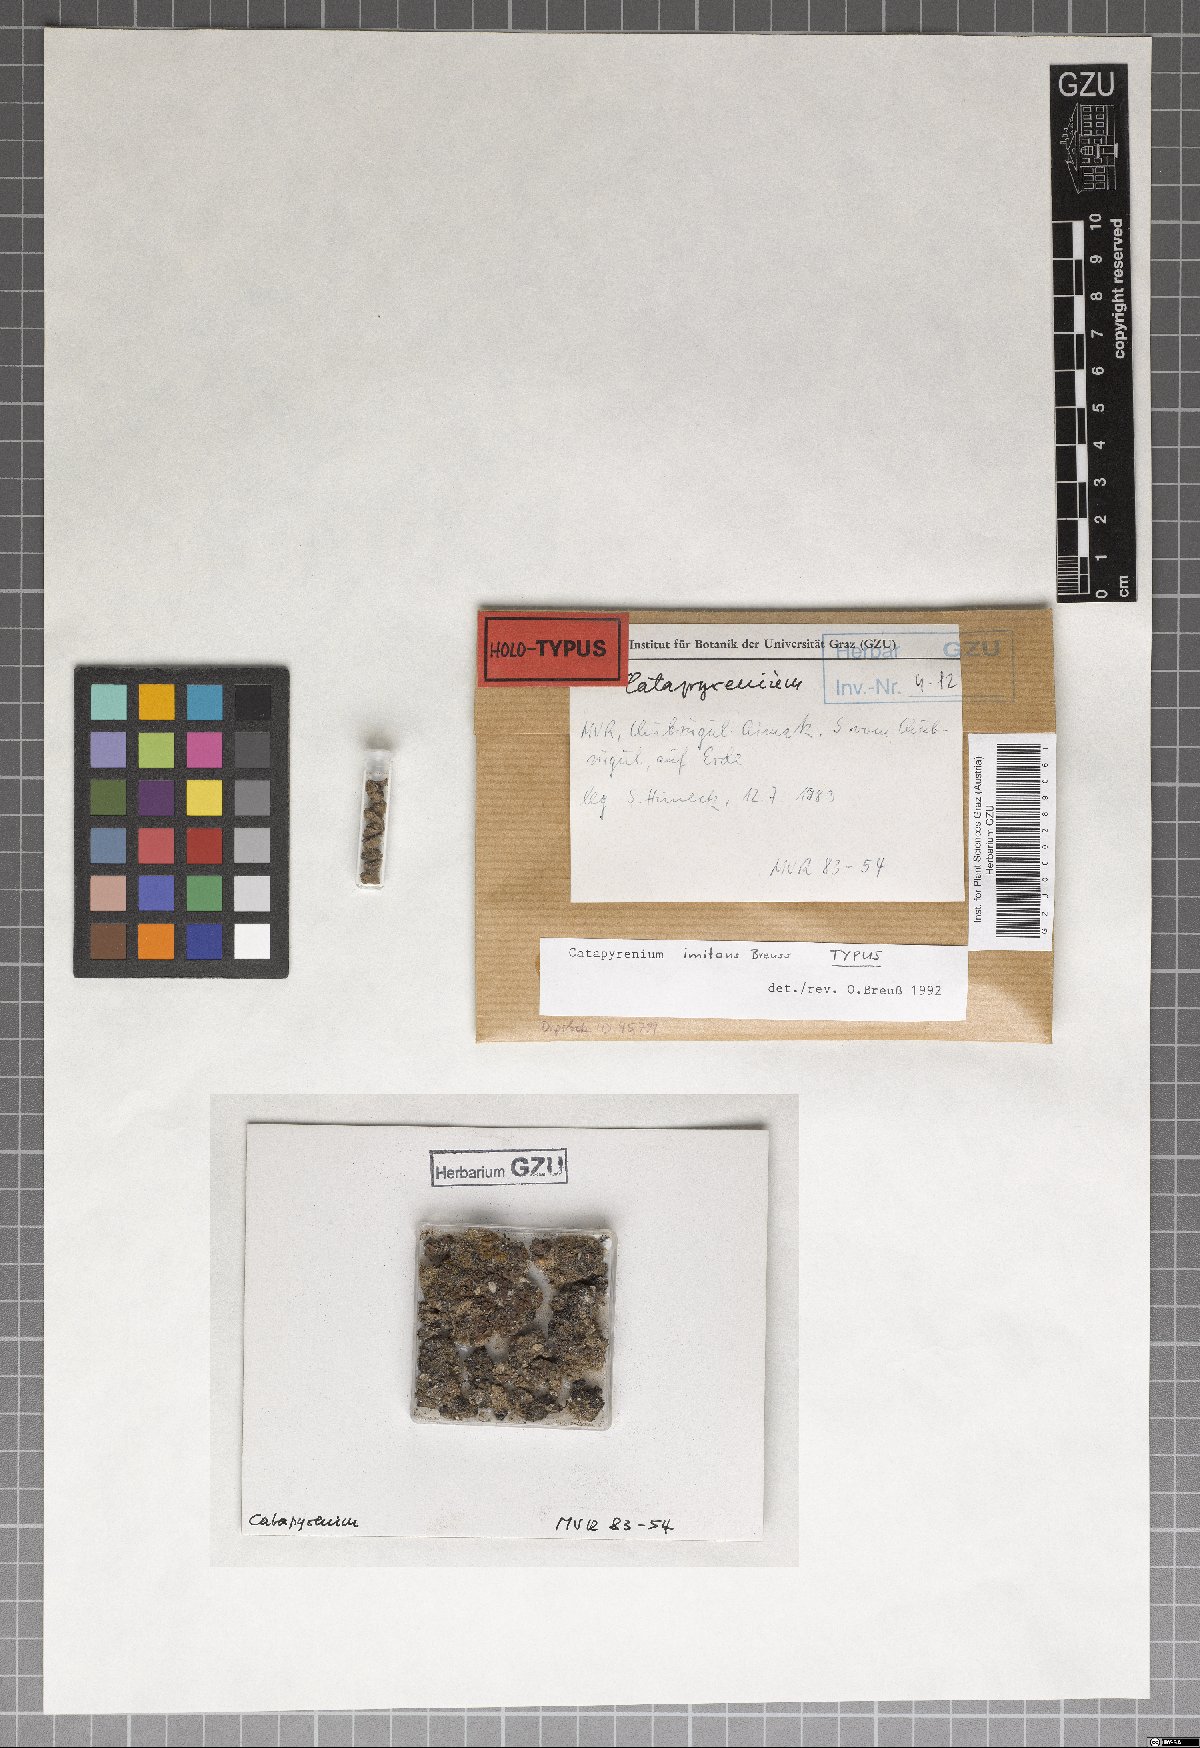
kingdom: Fungi
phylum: Ascomycota
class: Eurotiomycetes
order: Verrucariales
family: Verrucariaceae
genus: Clavascidium
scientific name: Clavascidium imitans
